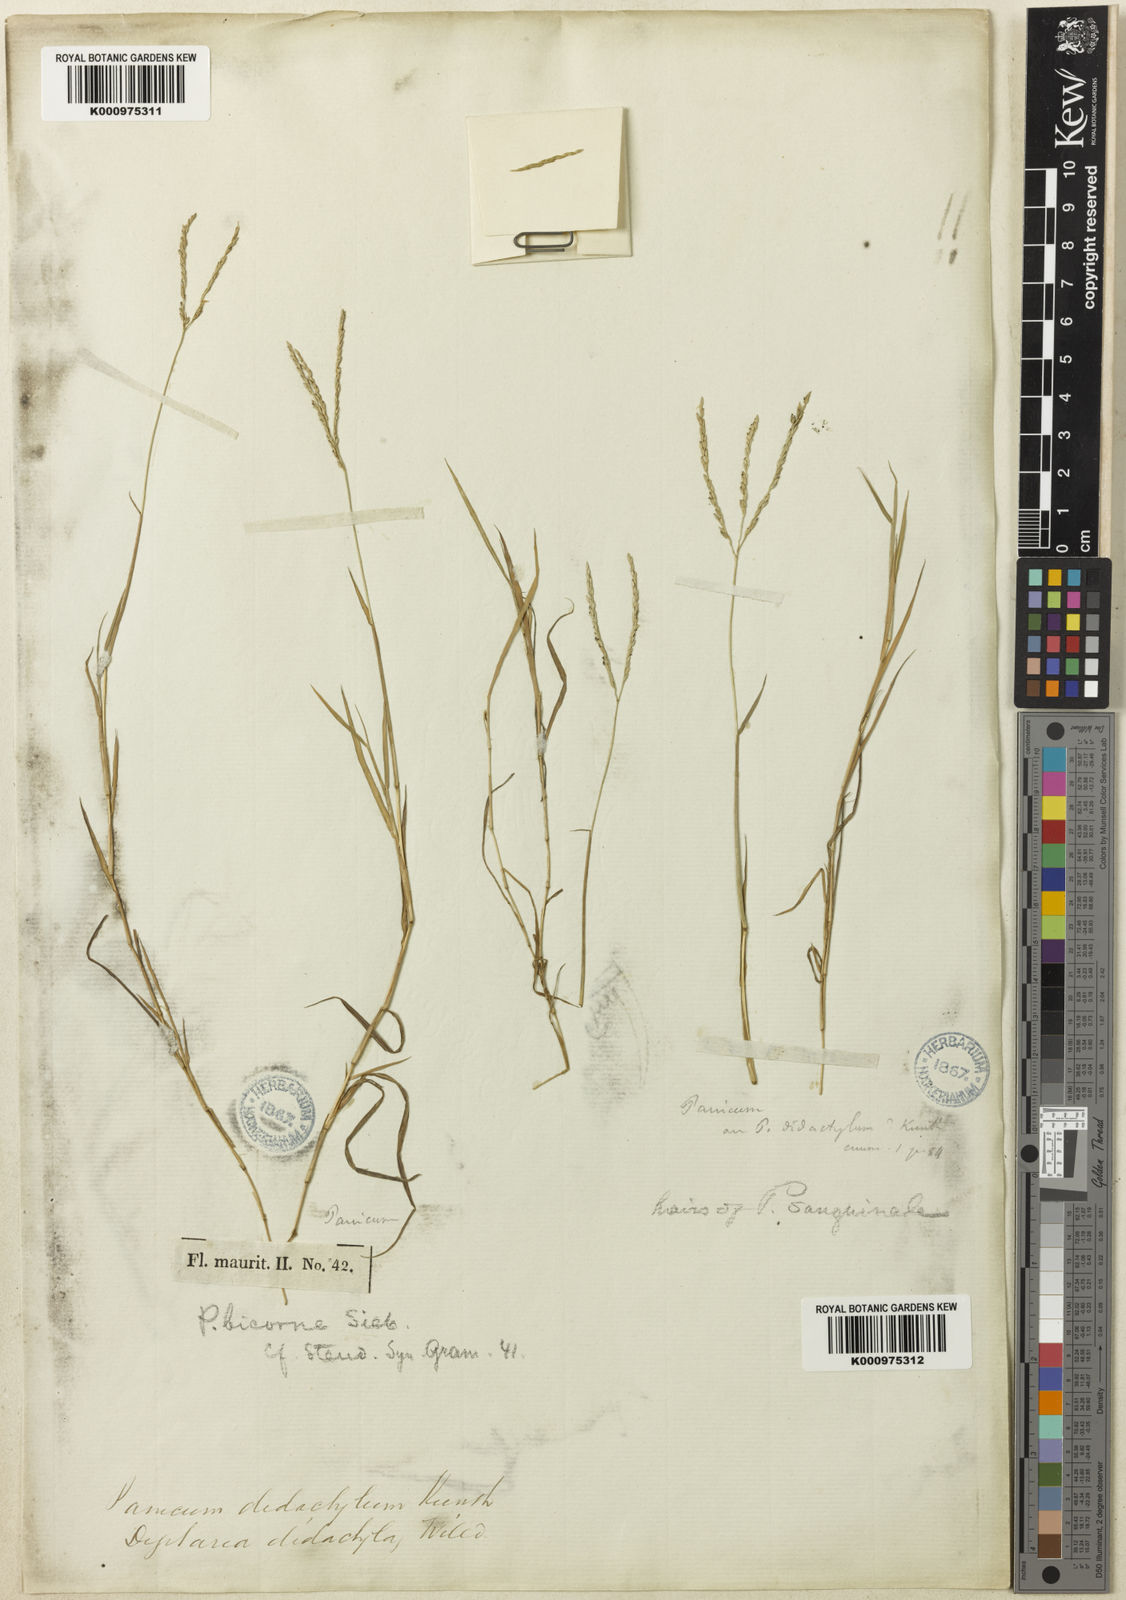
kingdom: Plantae
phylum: Tracheophyta
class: Liliopsida
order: Poales
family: Poaceae
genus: Digitaria
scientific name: Digitaria didactyla
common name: Blue couch
